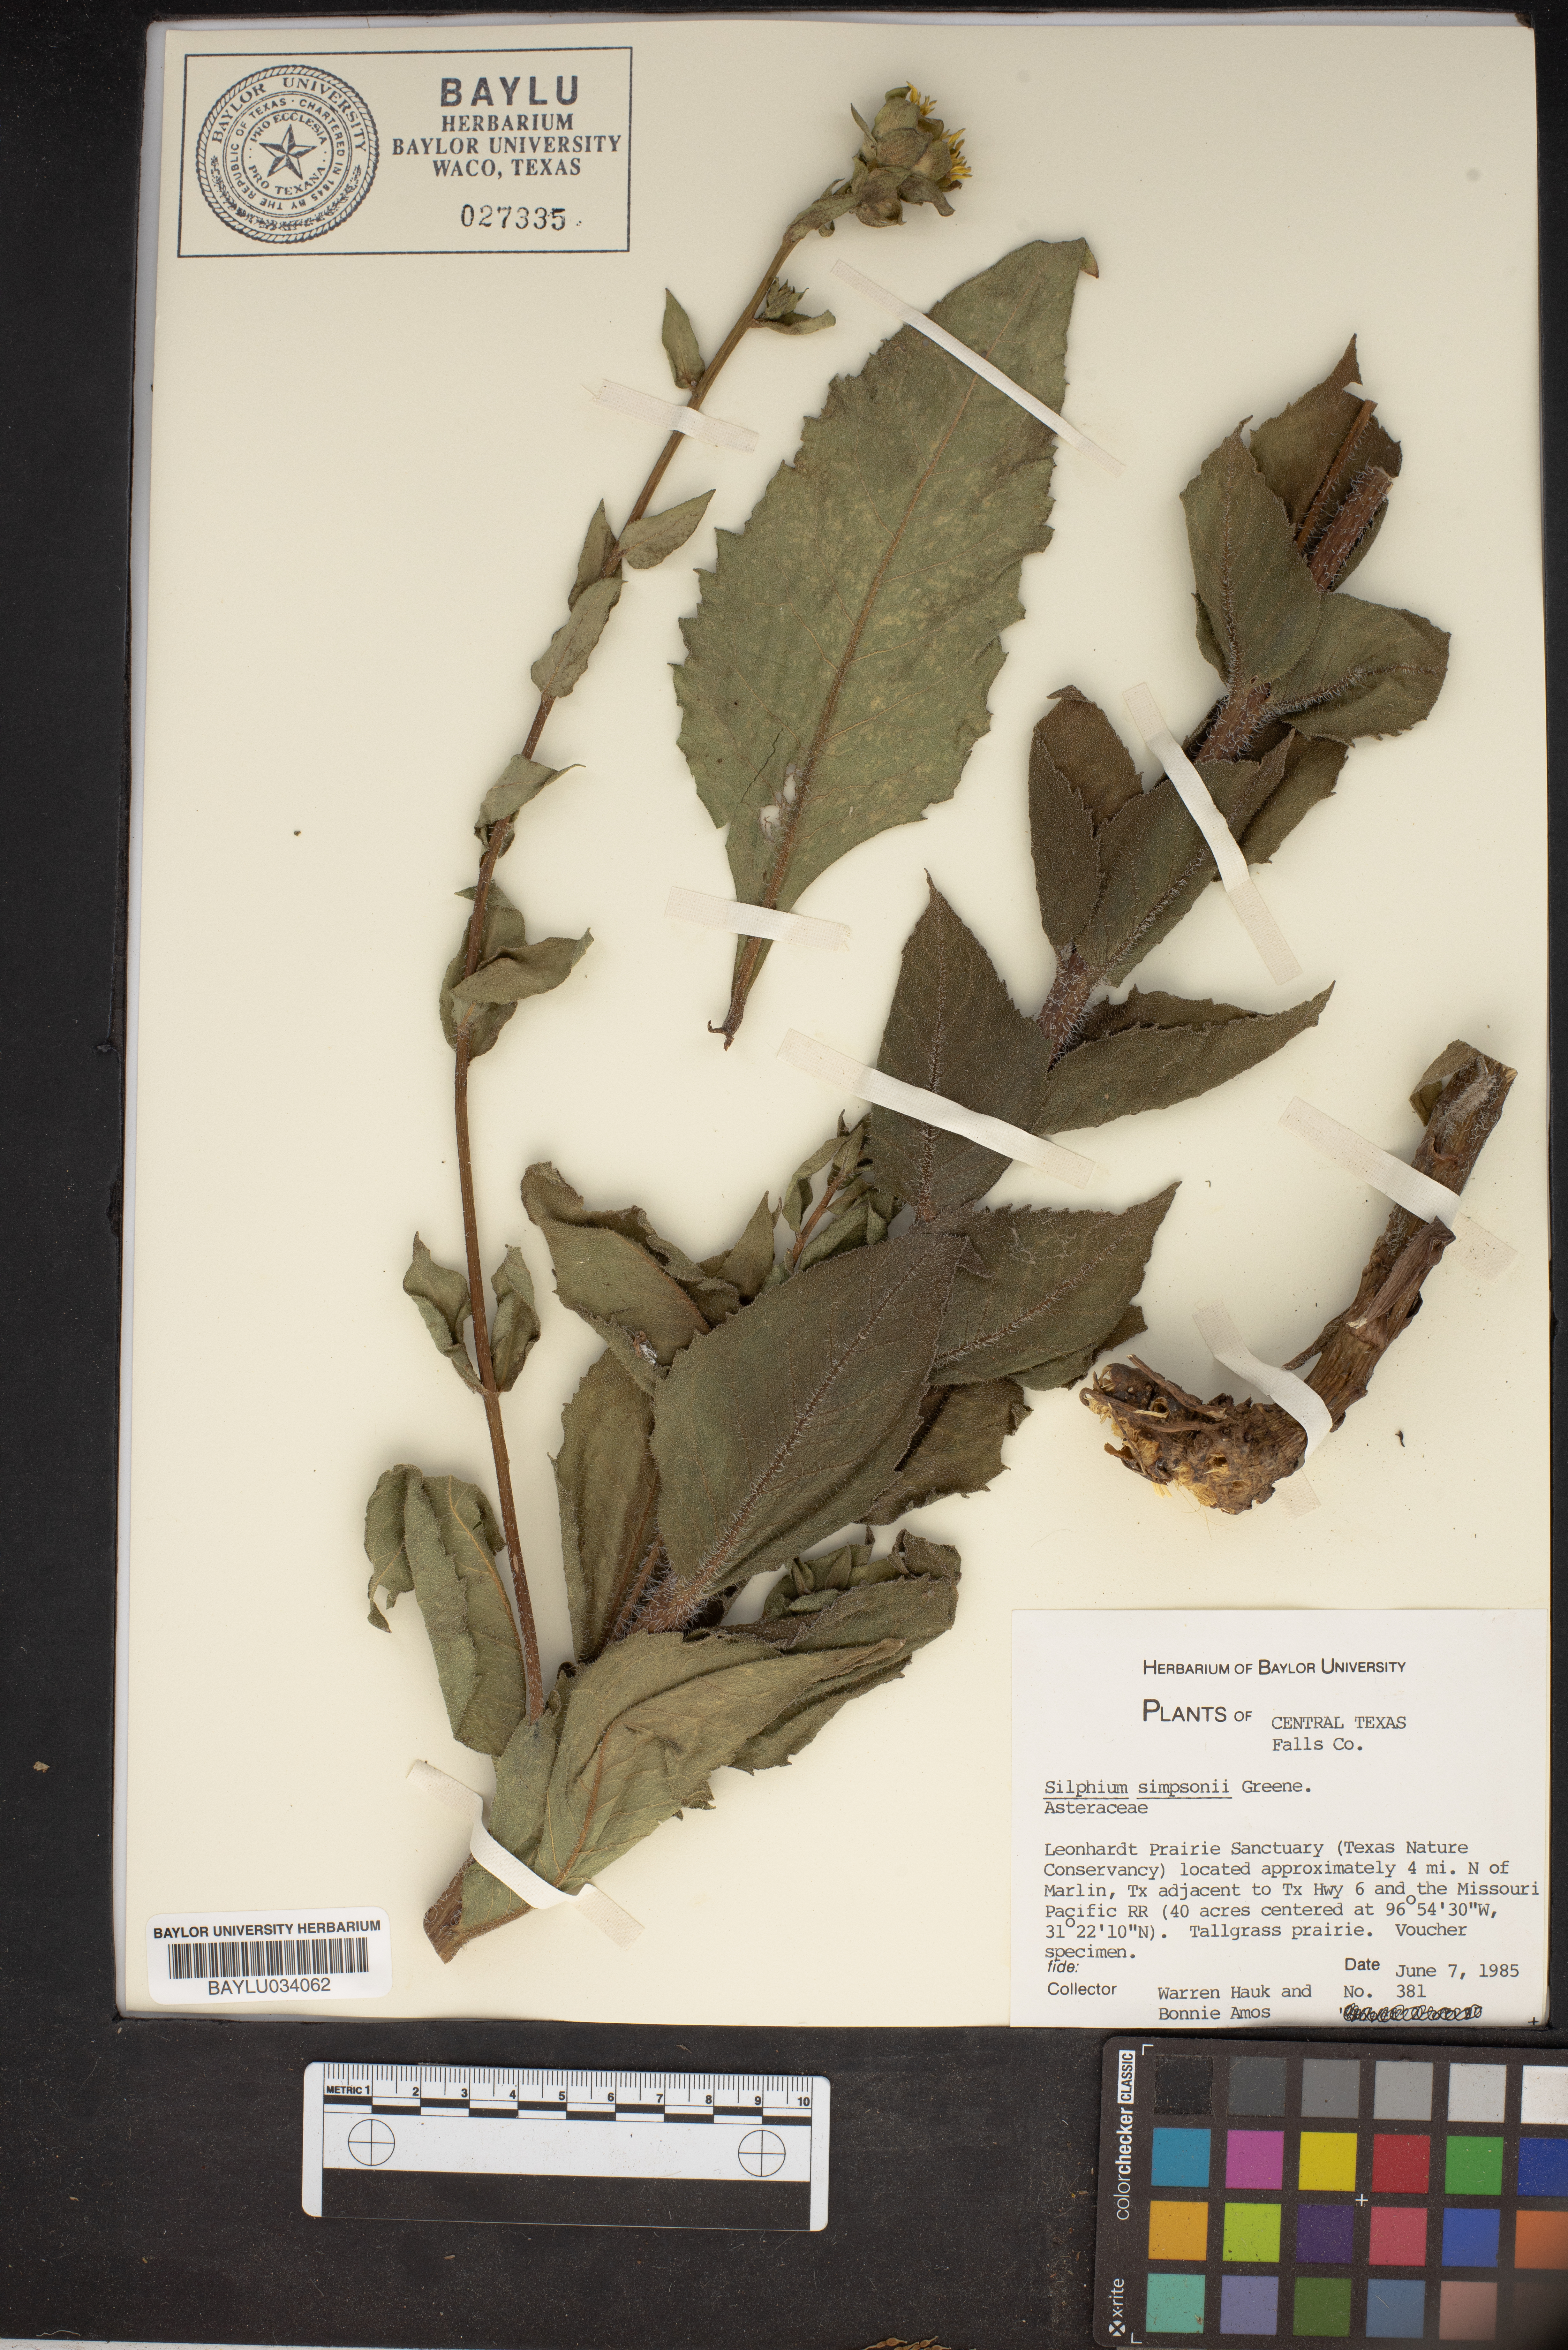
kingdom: Plantae
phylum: Tracheophyta
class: Magnoliopsida
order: Asterales
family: Asteraceae
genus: Silphium
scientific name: Silphium asteriscus
